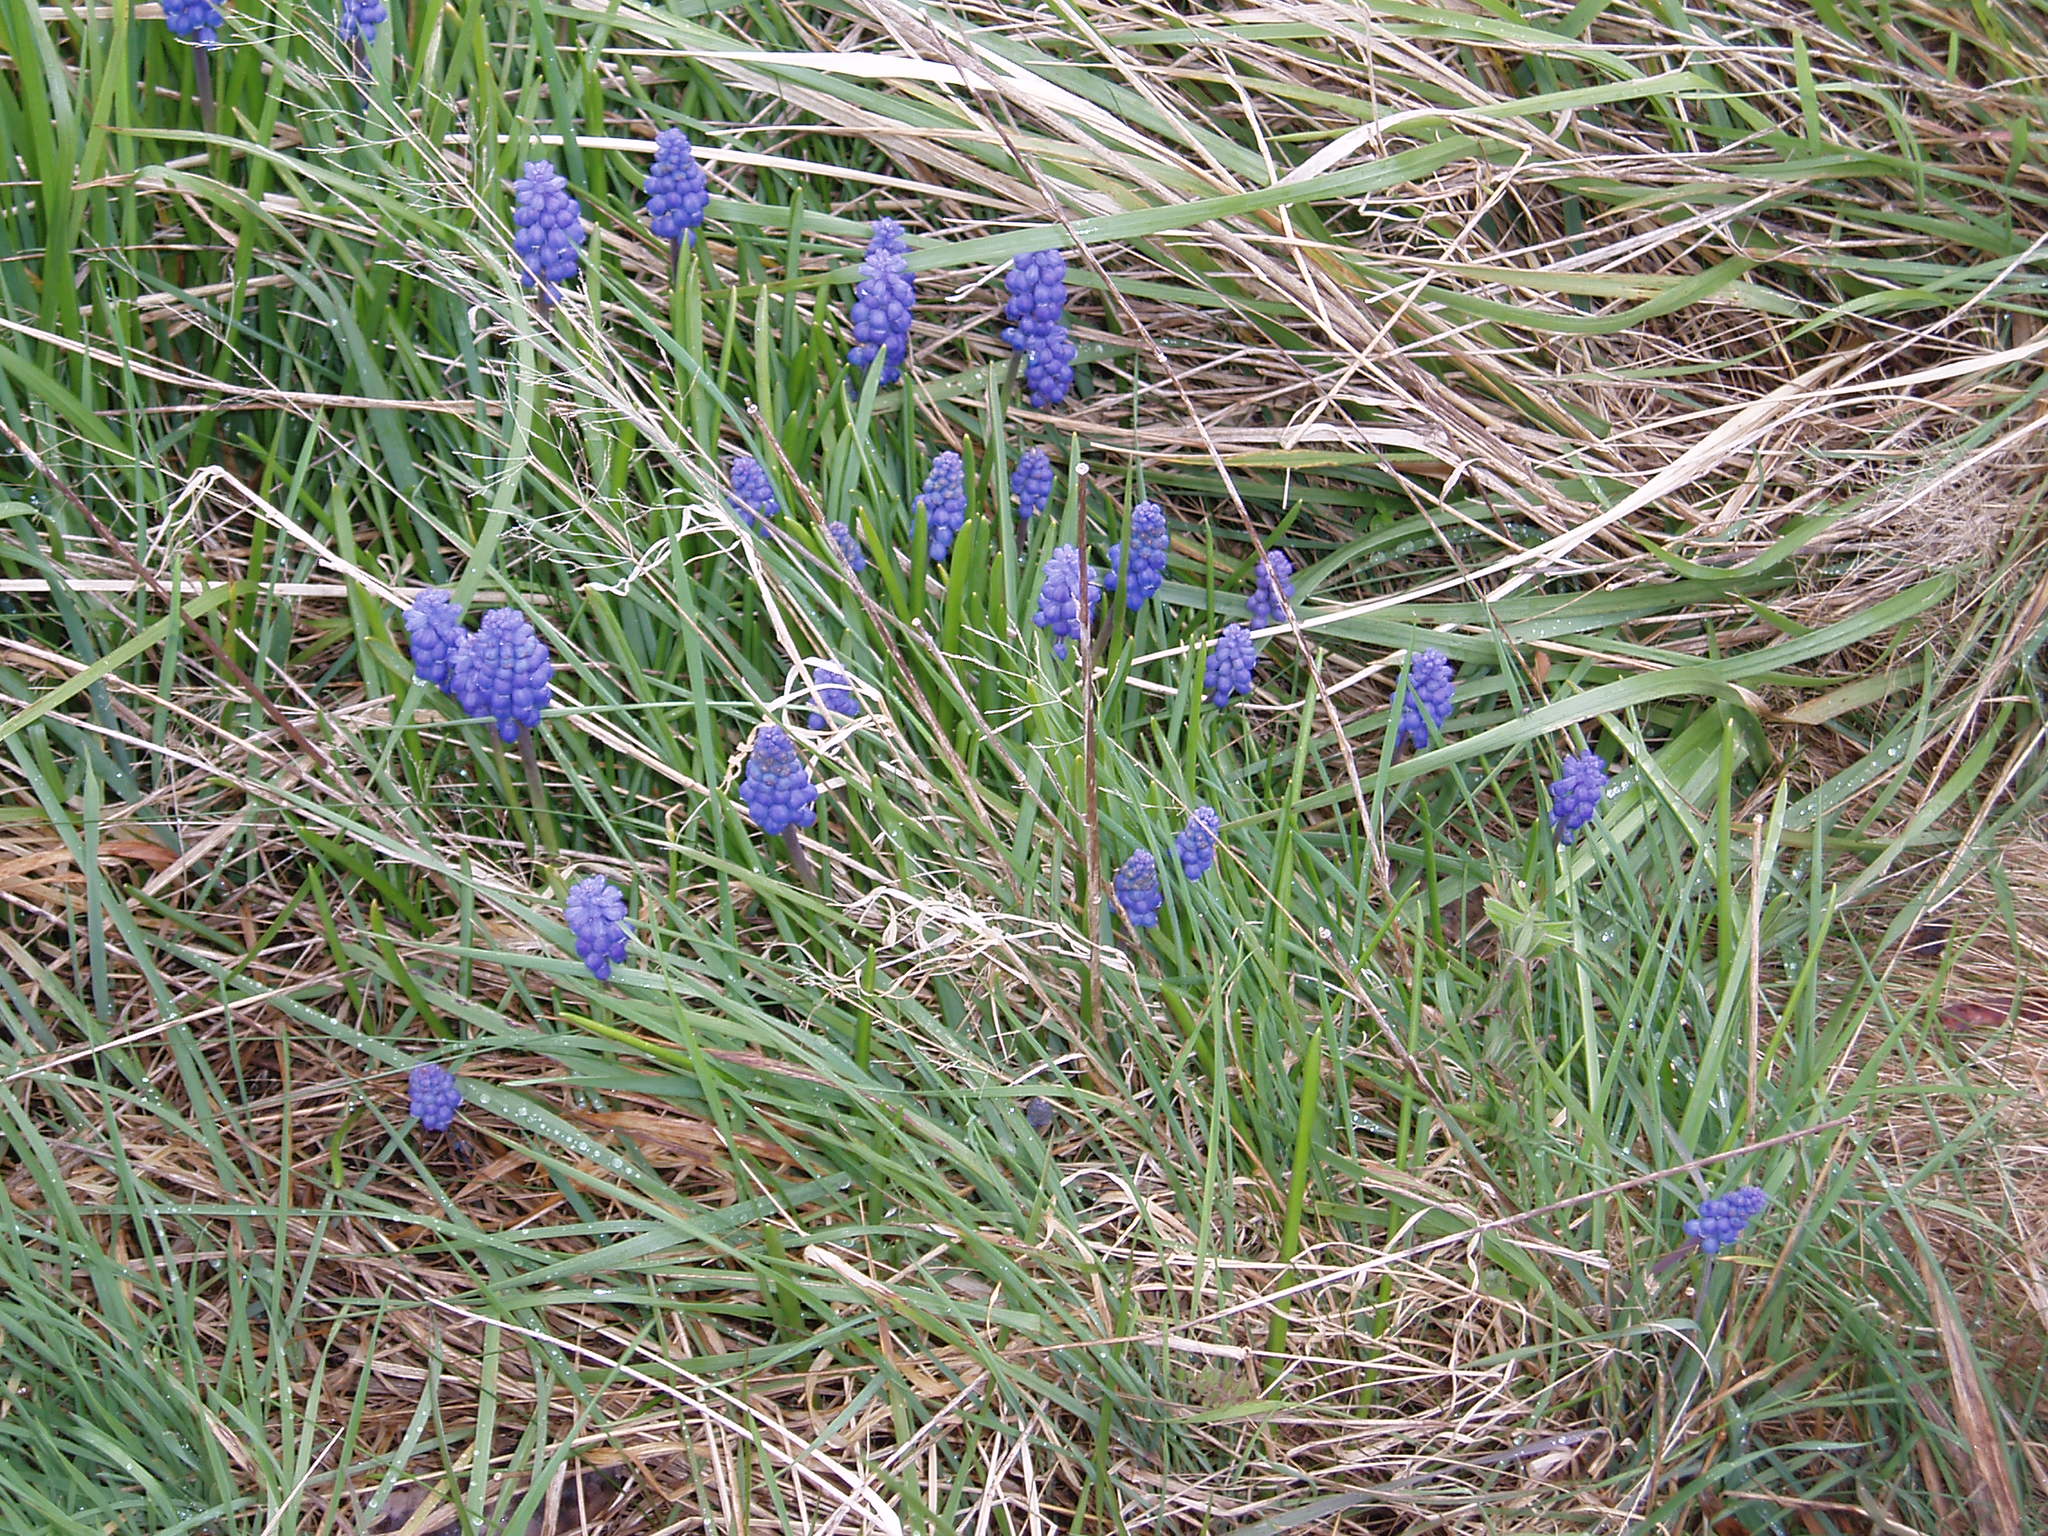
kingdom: Plantae
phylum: Tracheophyta
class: Liliopsida
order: Asparagales
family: Asparagaceae
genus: Muscari
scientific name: Muscari armeniacum
